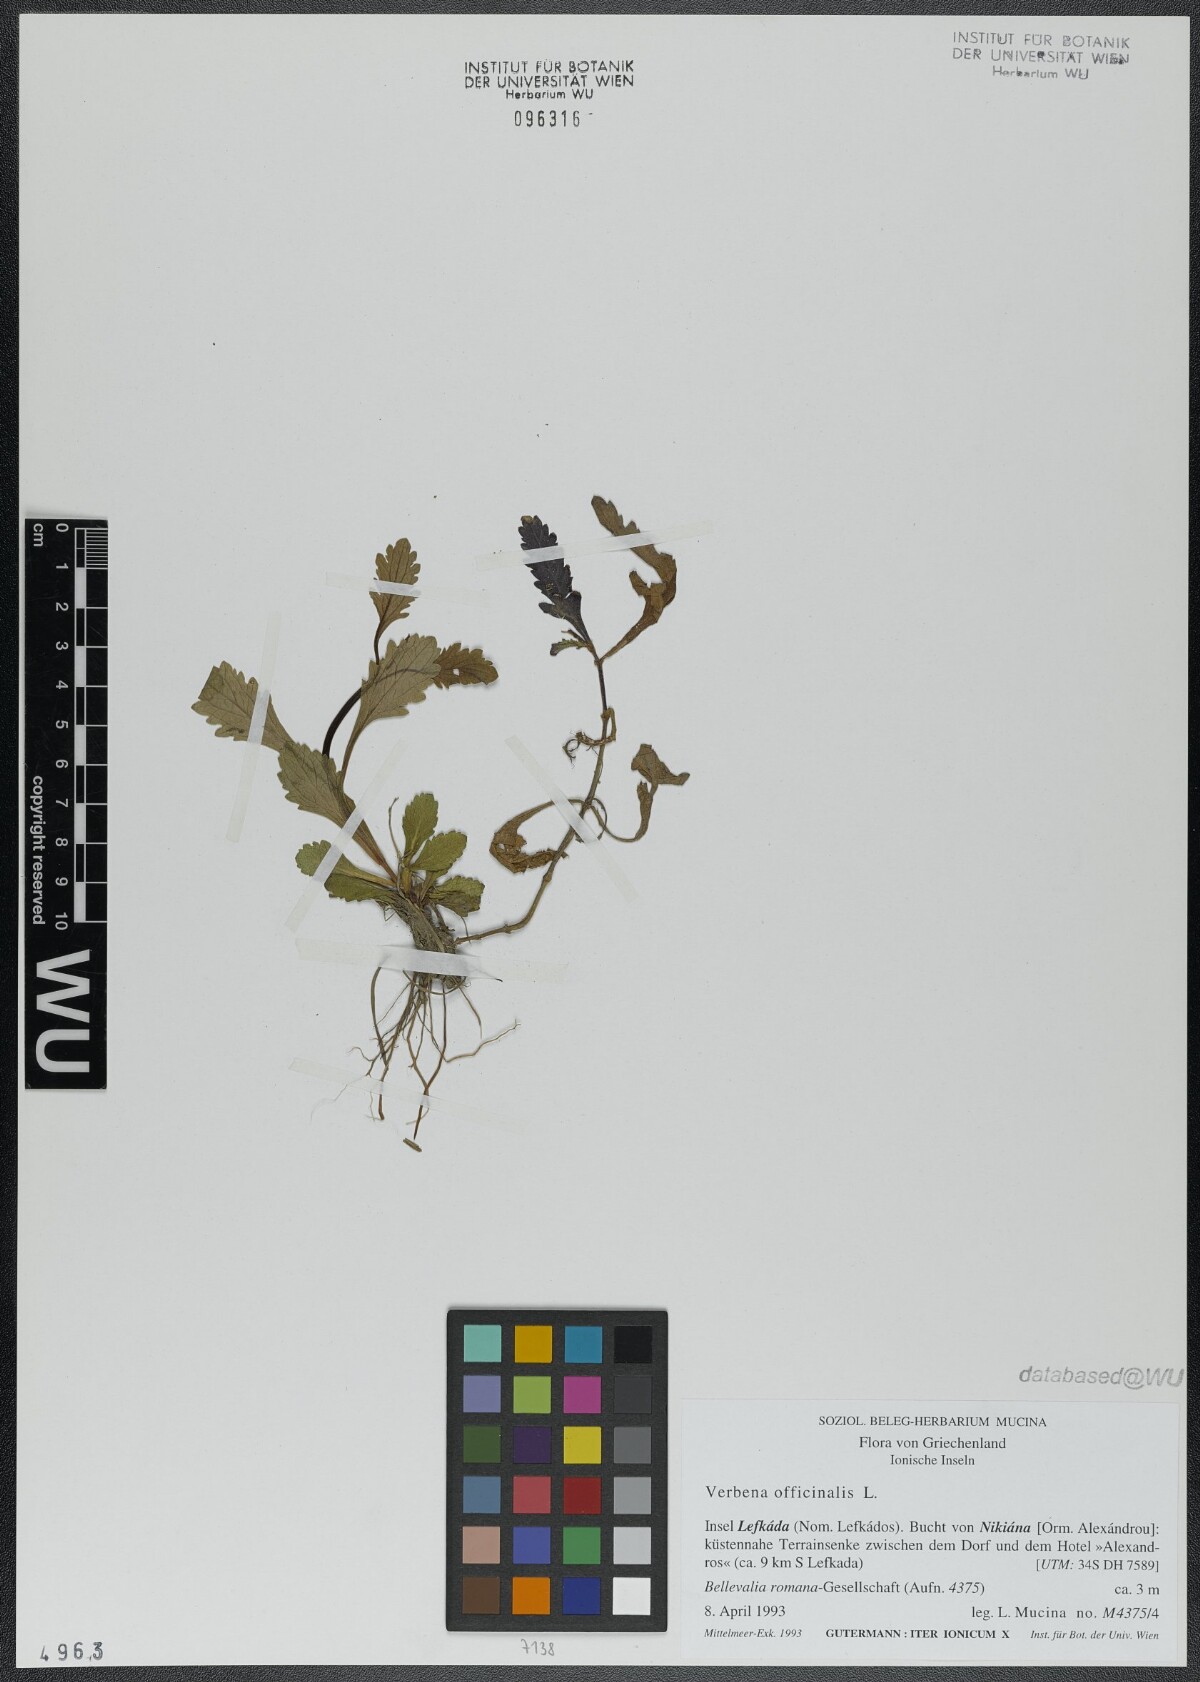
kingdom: Plantae
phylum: Tracheophyta
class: Magnoliopsida
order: Lamiales
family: Verbenaceae
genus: Verbena
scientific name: Verbena officinalis
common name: Vervain
